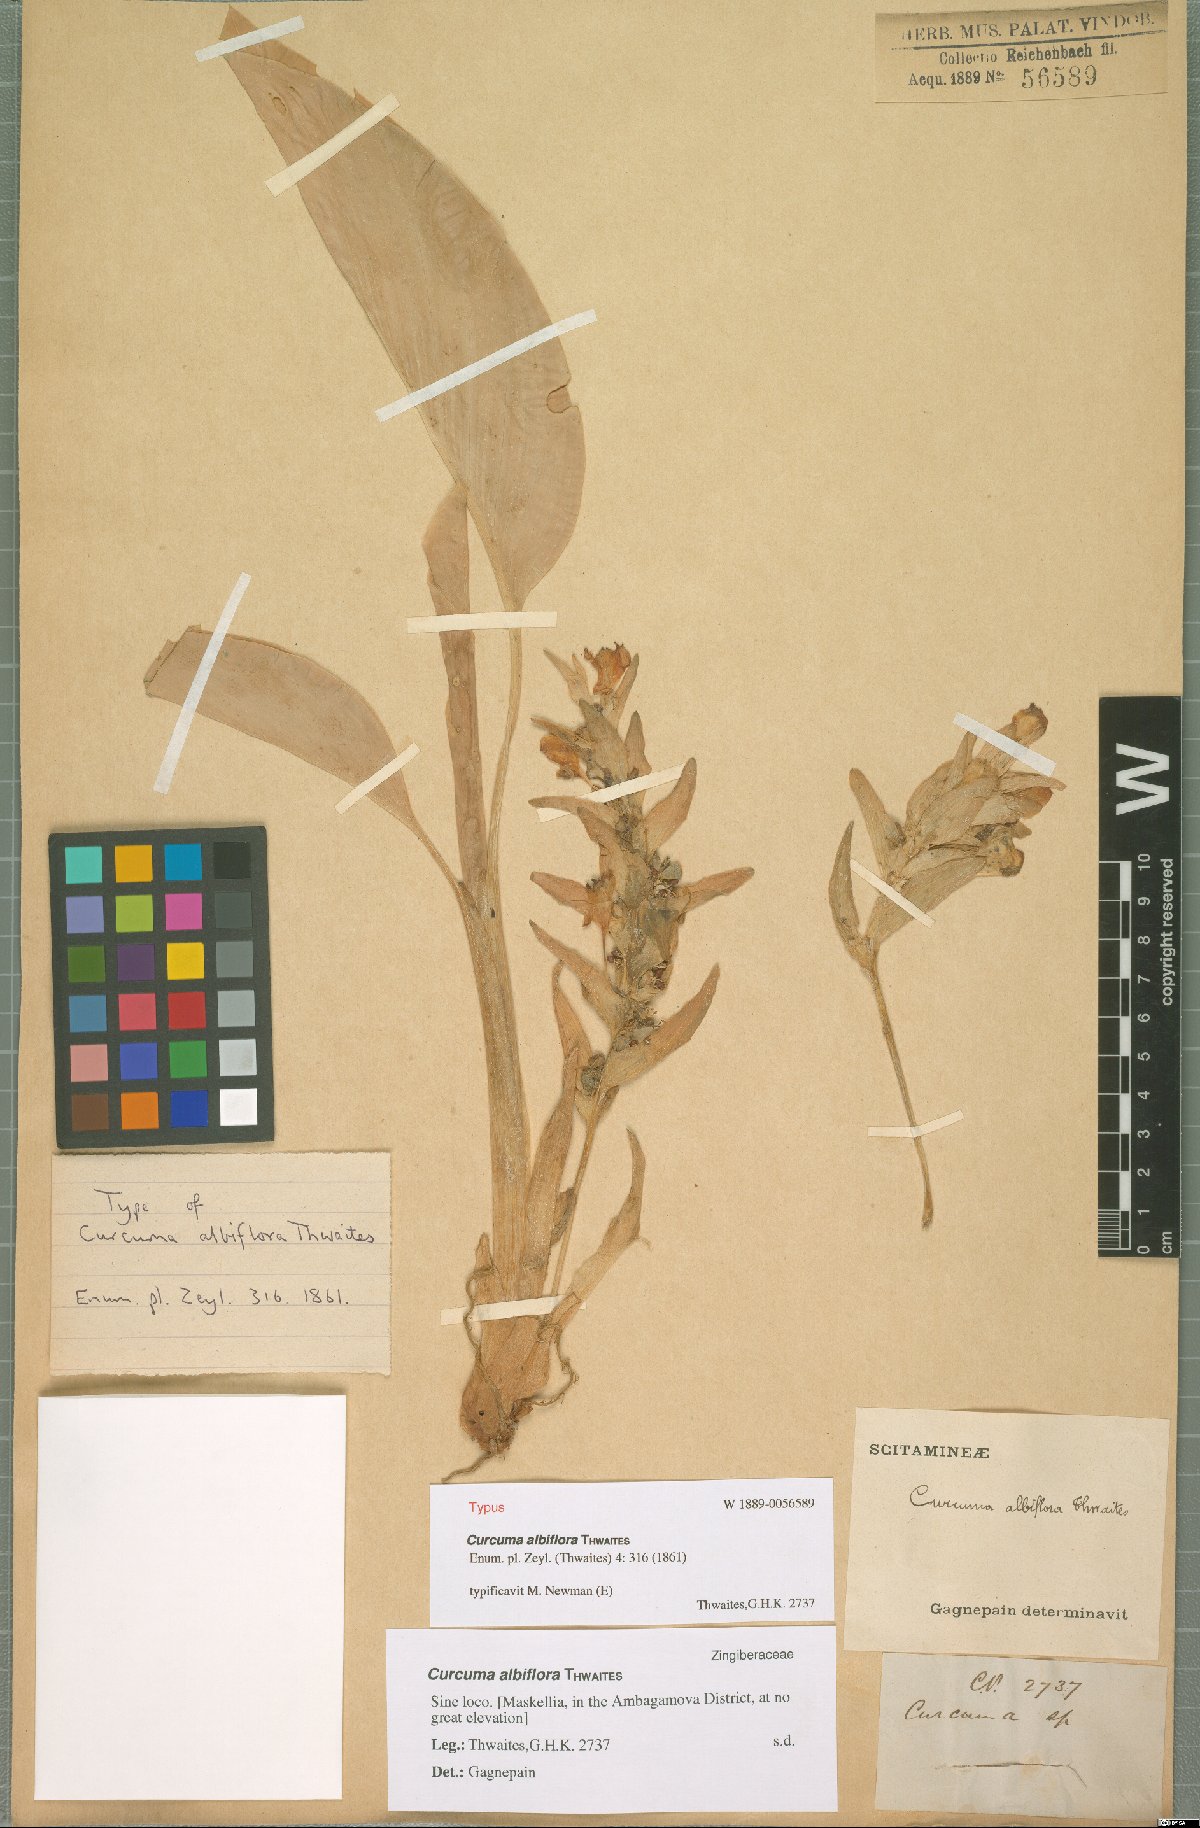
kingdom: Plantae
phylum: Tracheophyta
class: Liliopsida
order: Zingiberales
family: Zingiberaceae
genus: Curcuma
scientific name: Curcuma albiflora
